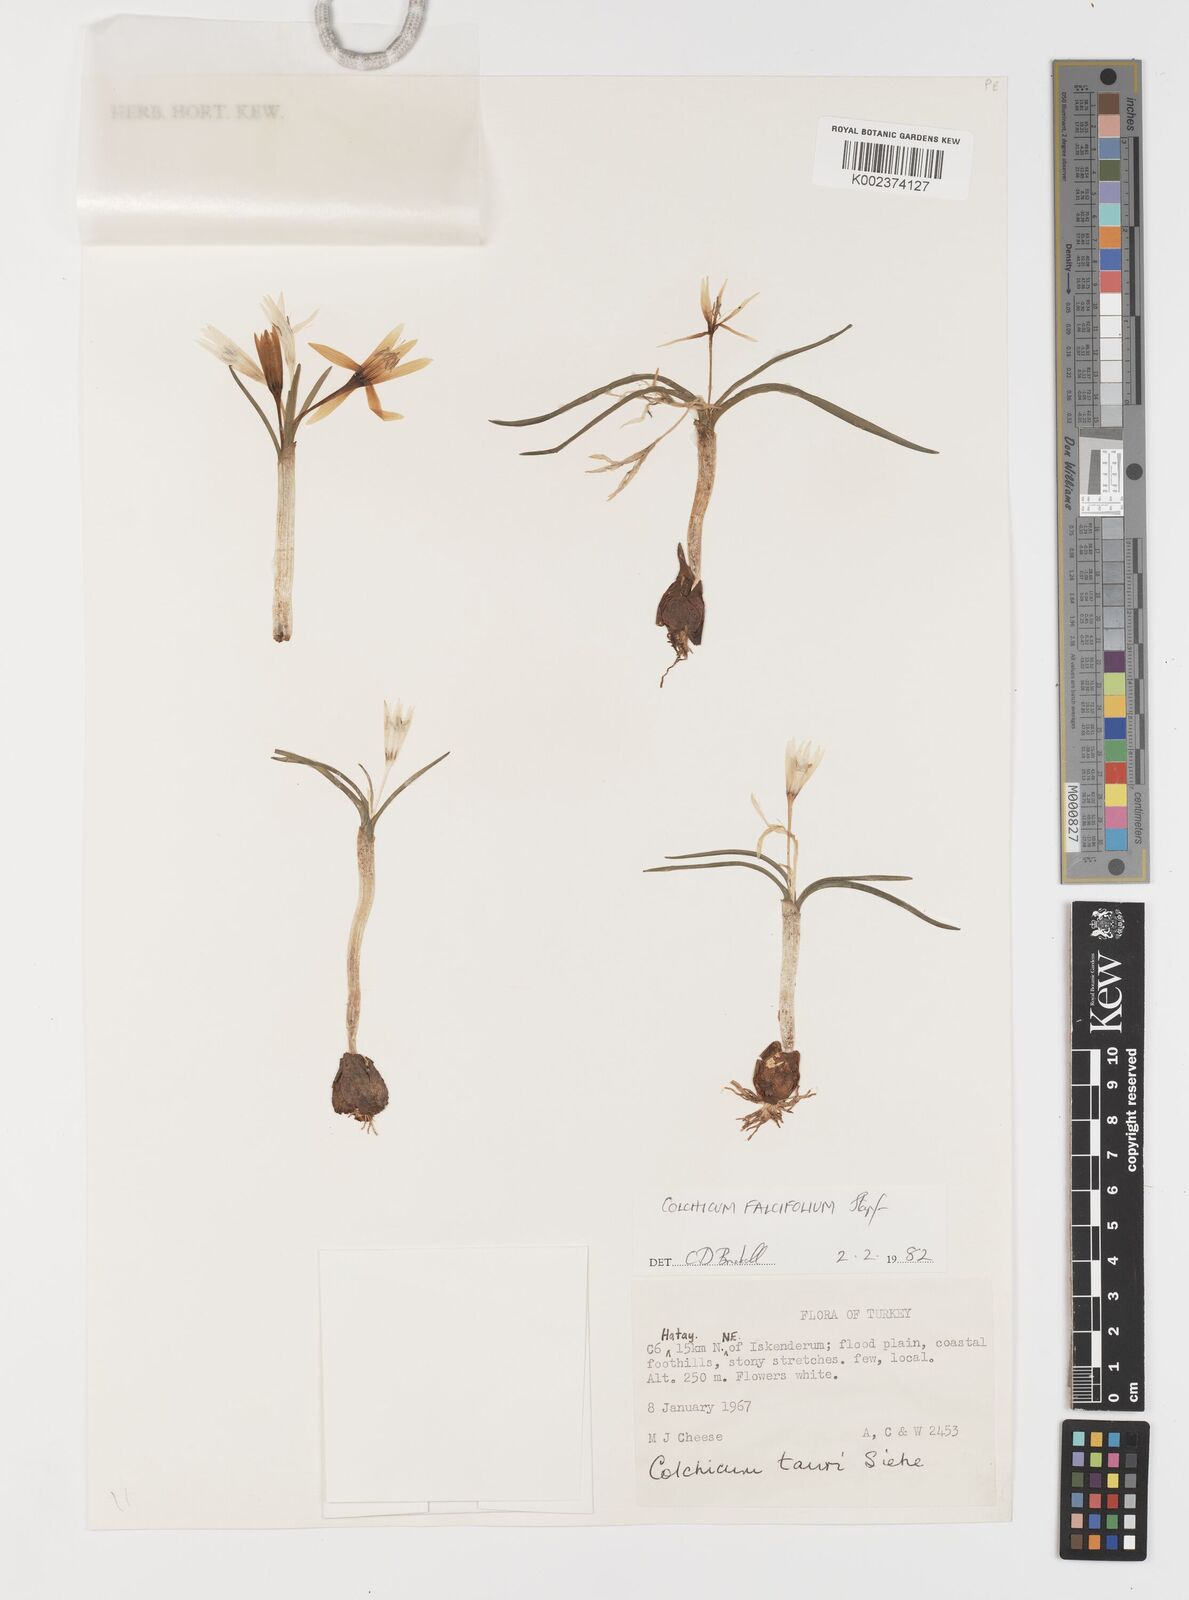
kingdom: Plantae
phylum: Tracheophyta
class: Liliopsida
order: Asparagales
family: Iridaceae
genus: Iris
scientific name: Iris caucasica
